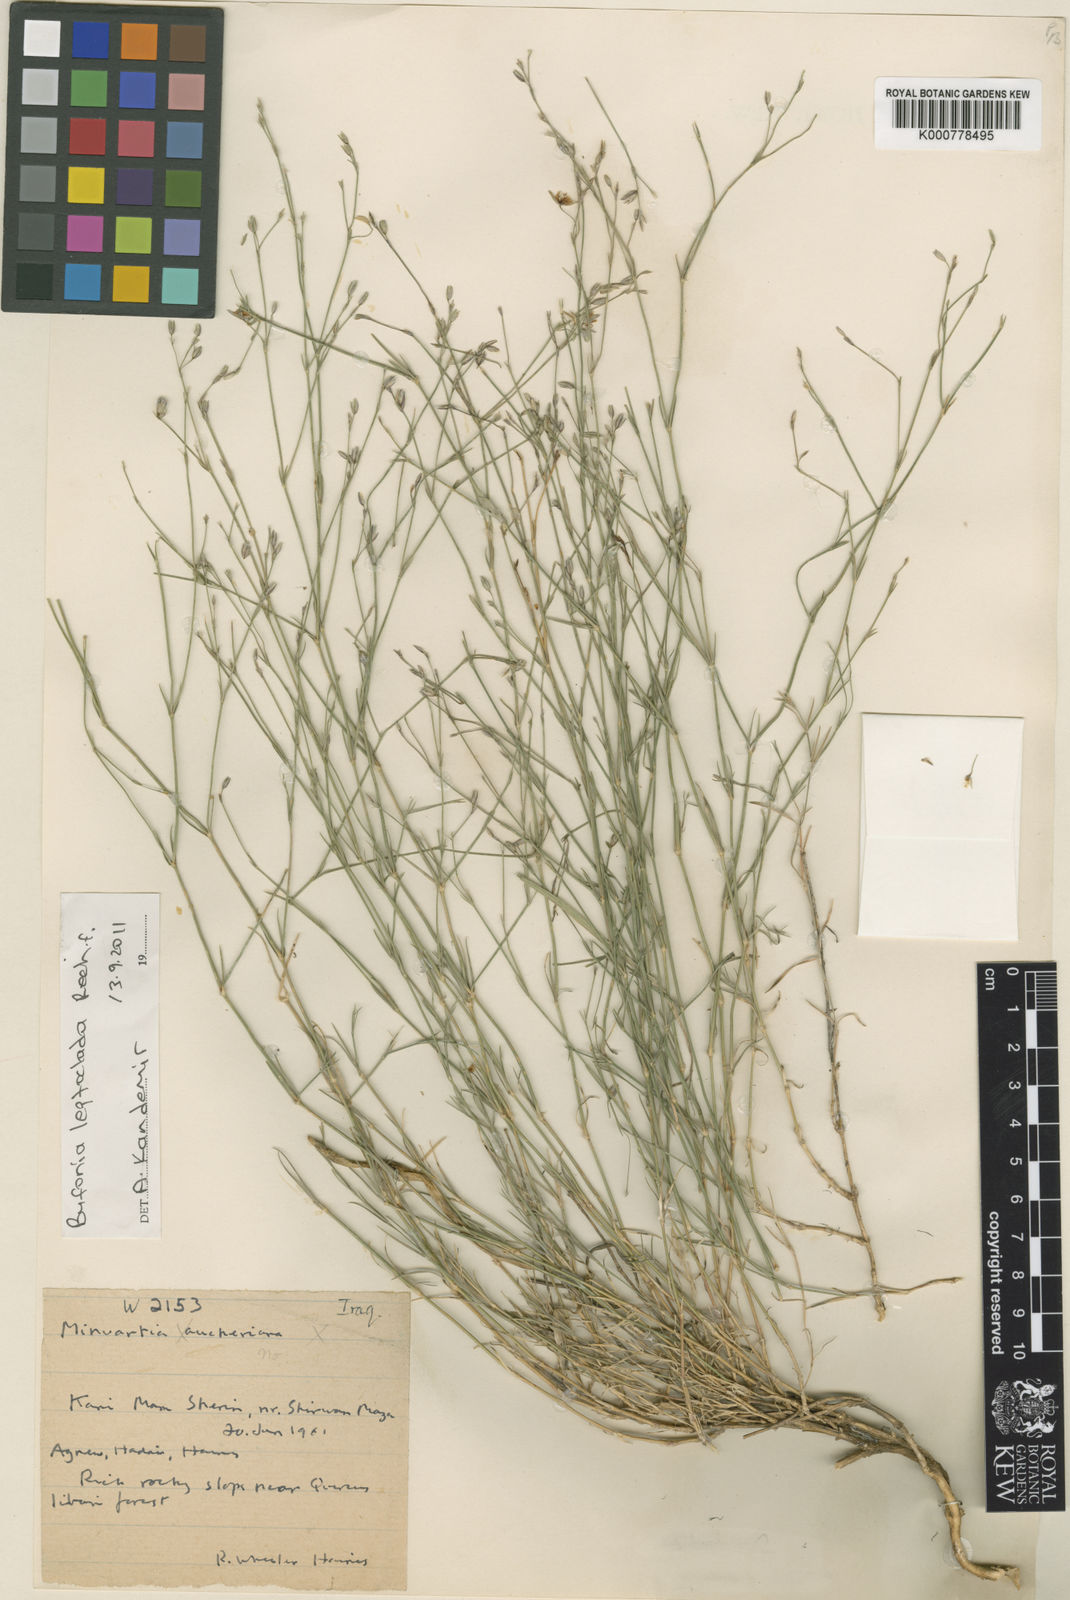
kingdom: Plantae
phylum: Tracheophyta
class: Magnoliopsida
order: Caryophyllales
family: Caryophyllaceae
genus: Bufonia
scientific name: Bufonia leptoclada
